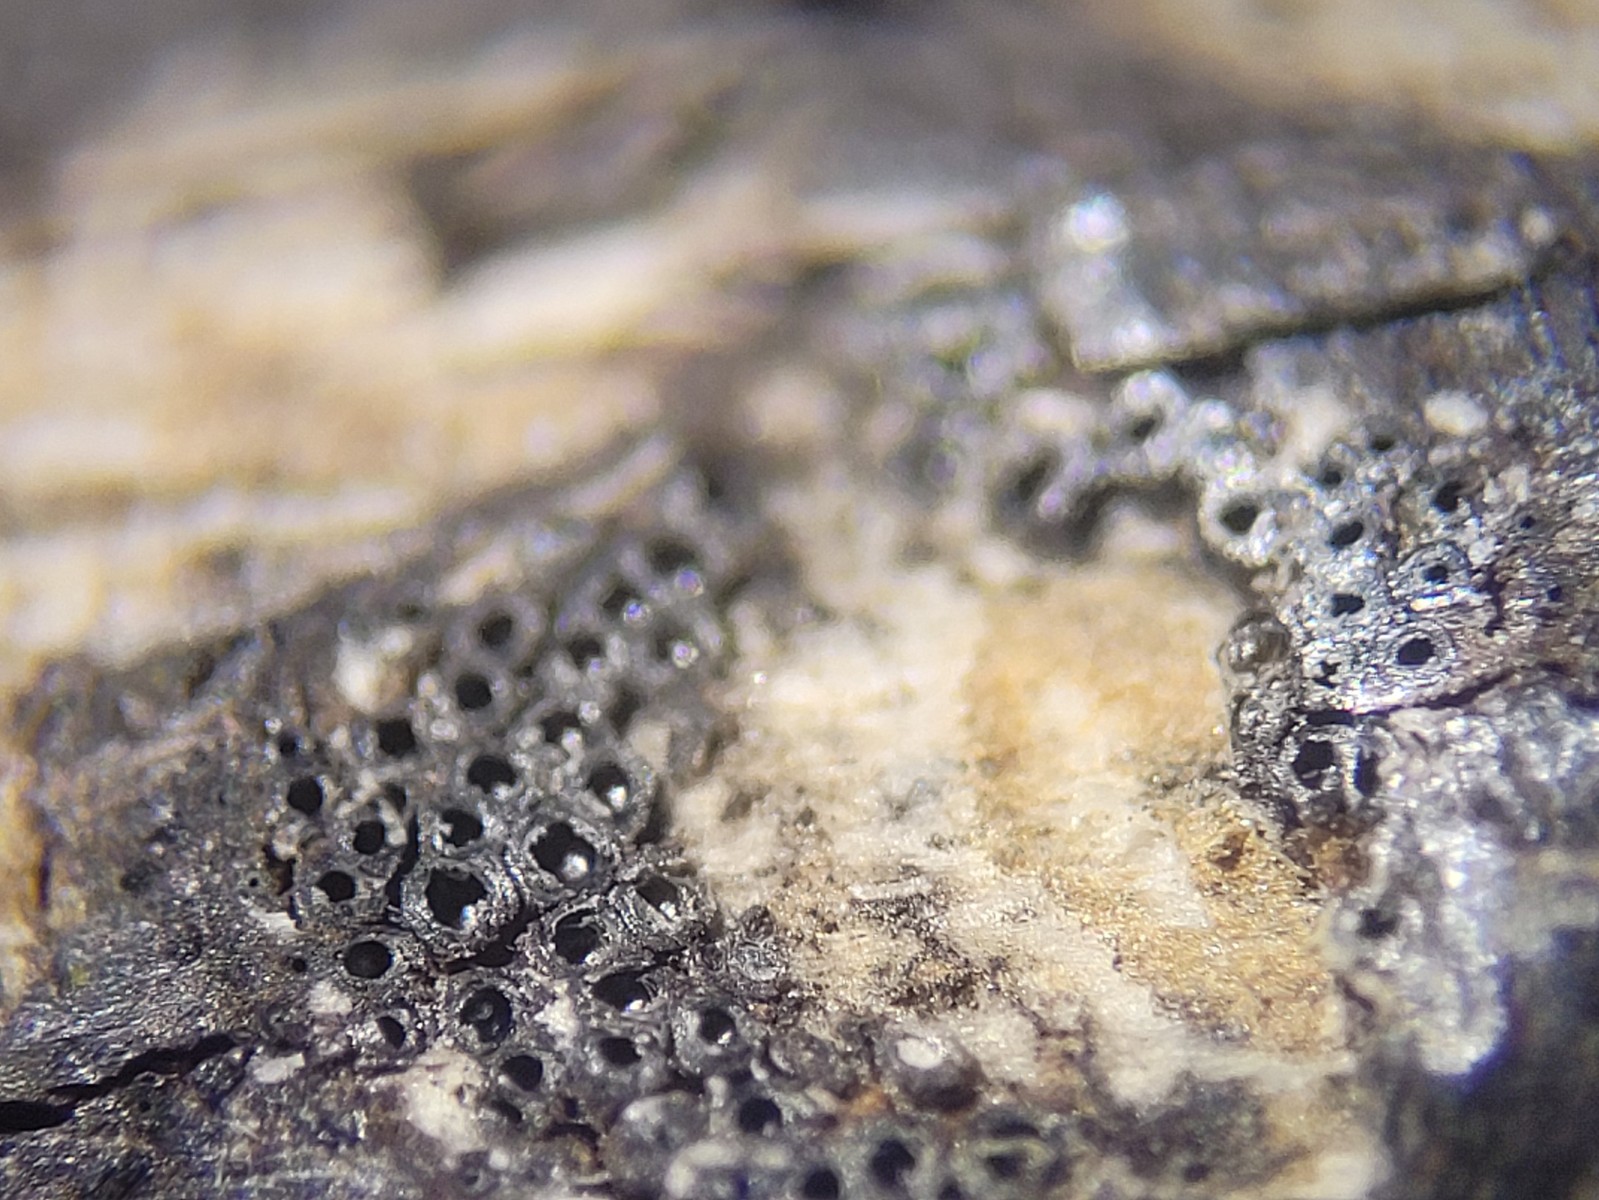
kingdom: Fungi
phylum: Ascomycota
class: Sordariomycetes
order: Xylariales
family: Diatrypaceae
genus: Eutypa
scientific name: Eutypa maura
